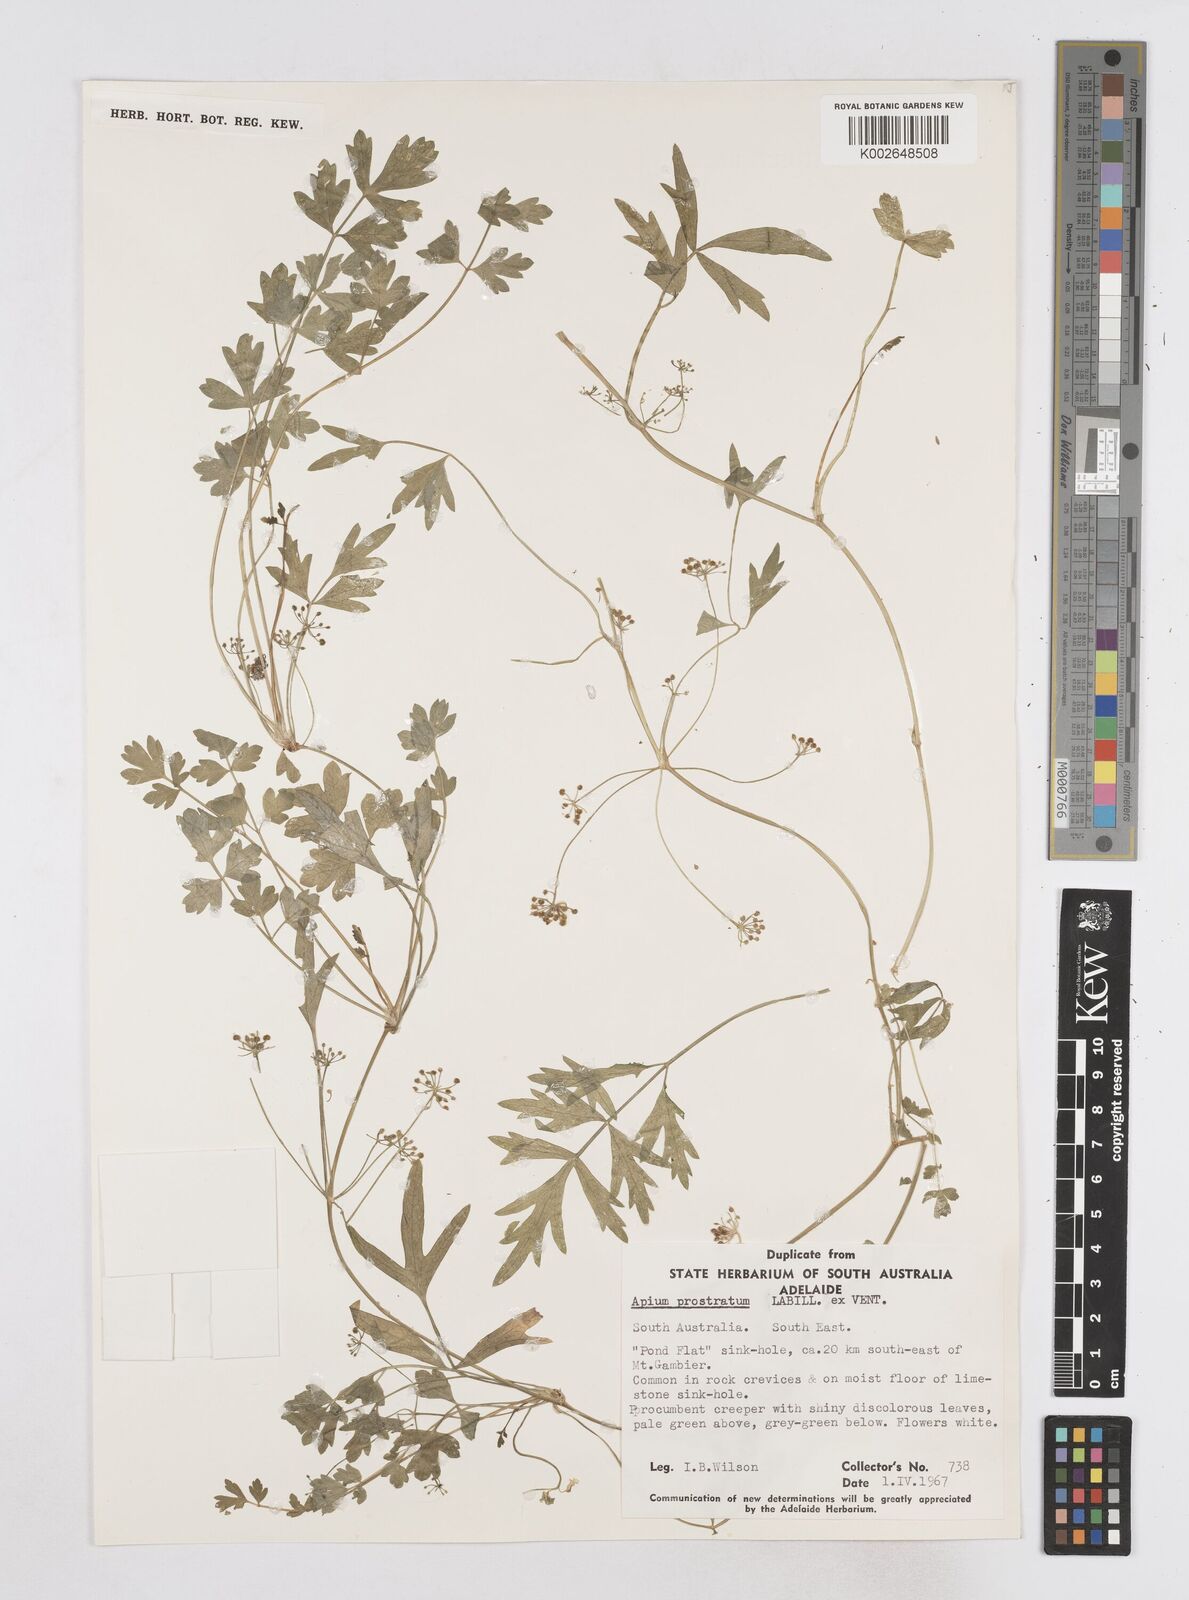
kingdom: Plantae
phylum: Tracheophyta
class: Magnoliopsida
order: Apiales
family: Apiaceae
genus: Apium
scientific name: Apium prostratum
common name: Prostrate marshwort
